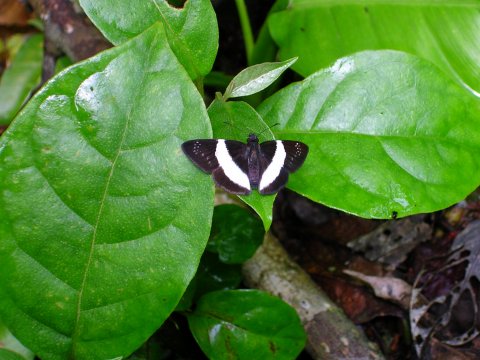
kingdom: Animalia
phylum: Arthropoda
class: Insecta
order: Lepidoptera
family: Hesperiidae
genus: Eburuncus
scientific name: Eburuncus unifasciata
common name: Single-banded Tuskyhook
